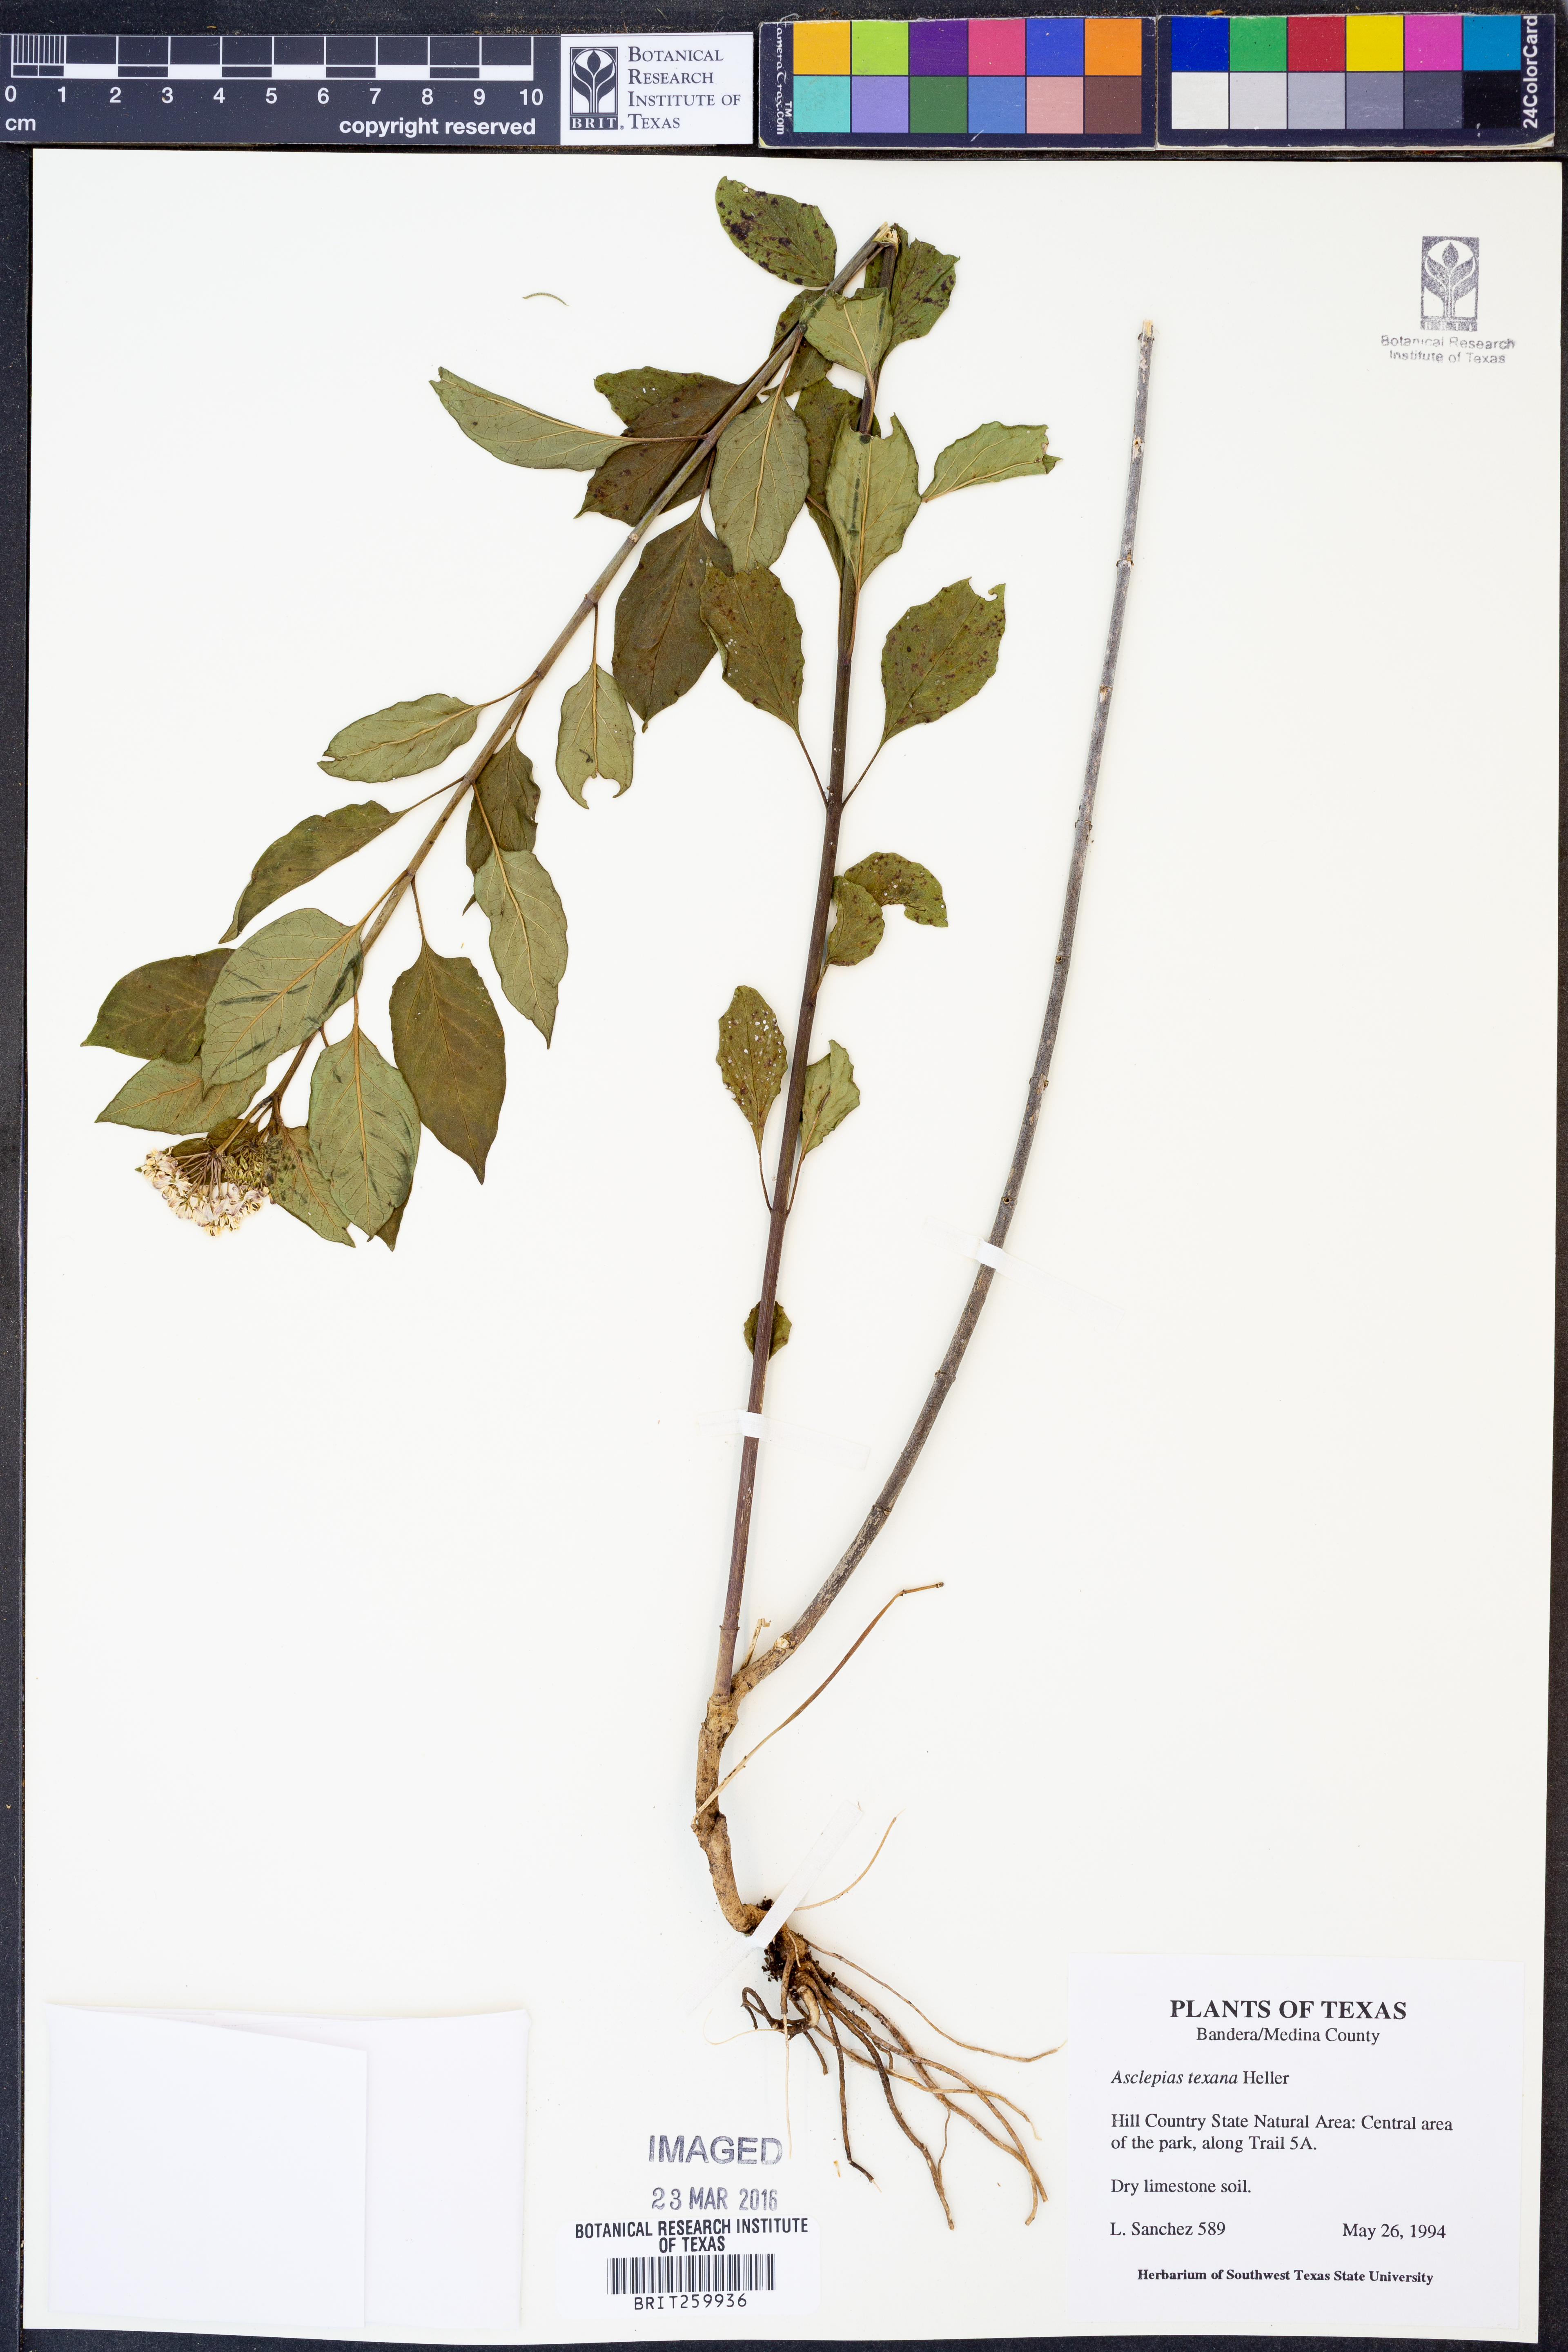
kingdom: Plantae
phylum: Tracheophyta
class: Magnoliopsida
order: Gentianales
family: Apocynaceae
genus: Asclepias
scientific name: Asclepias texana
